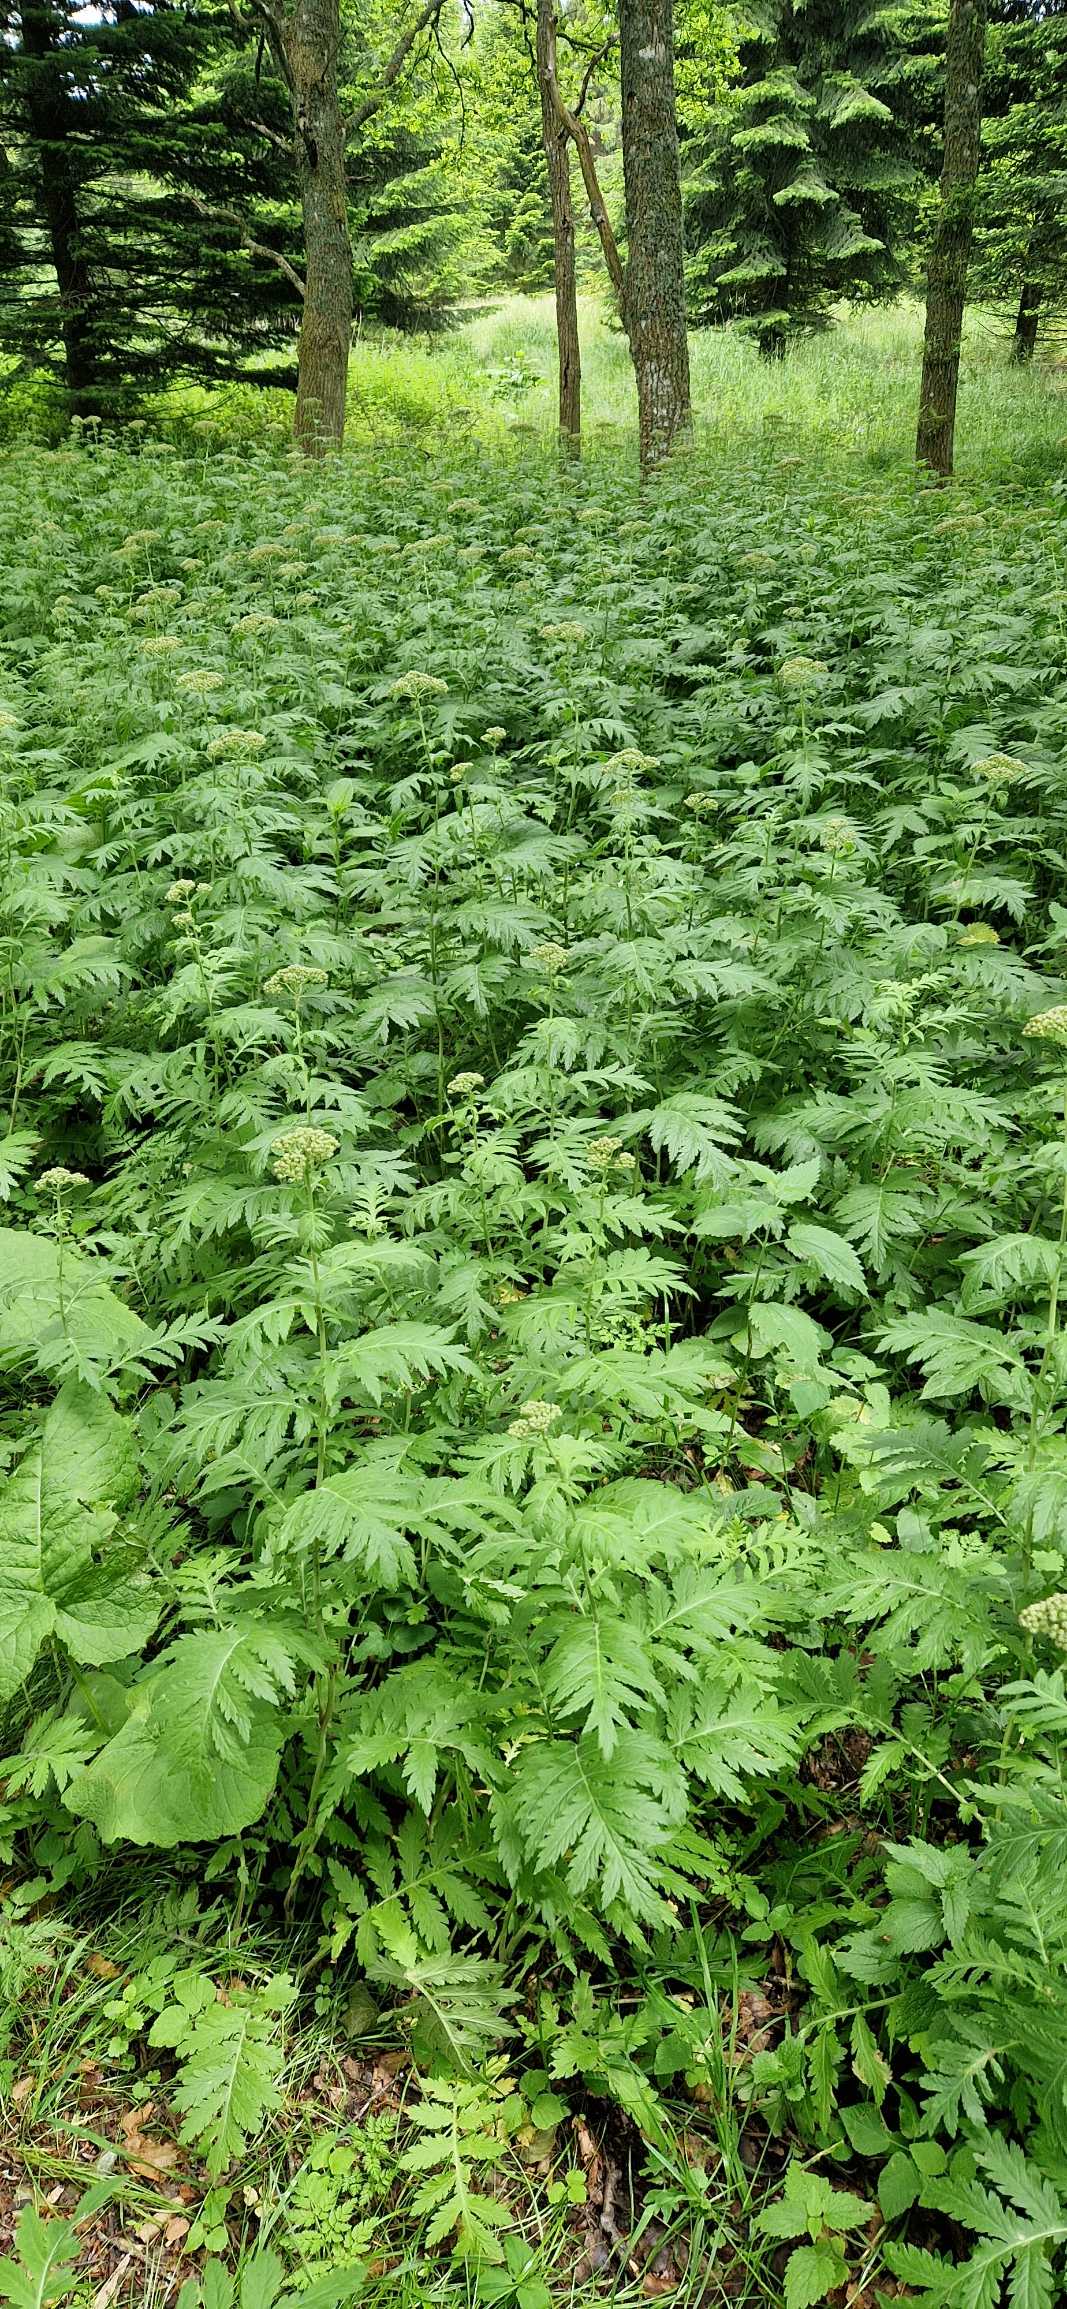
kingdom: Plantae
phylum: Tracheophyta
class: Magnoliopsida
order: Asterales
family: Asteraceae
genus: Tanacetum
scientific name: Tanacetum macrophyllum
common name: Røllike-matrem
